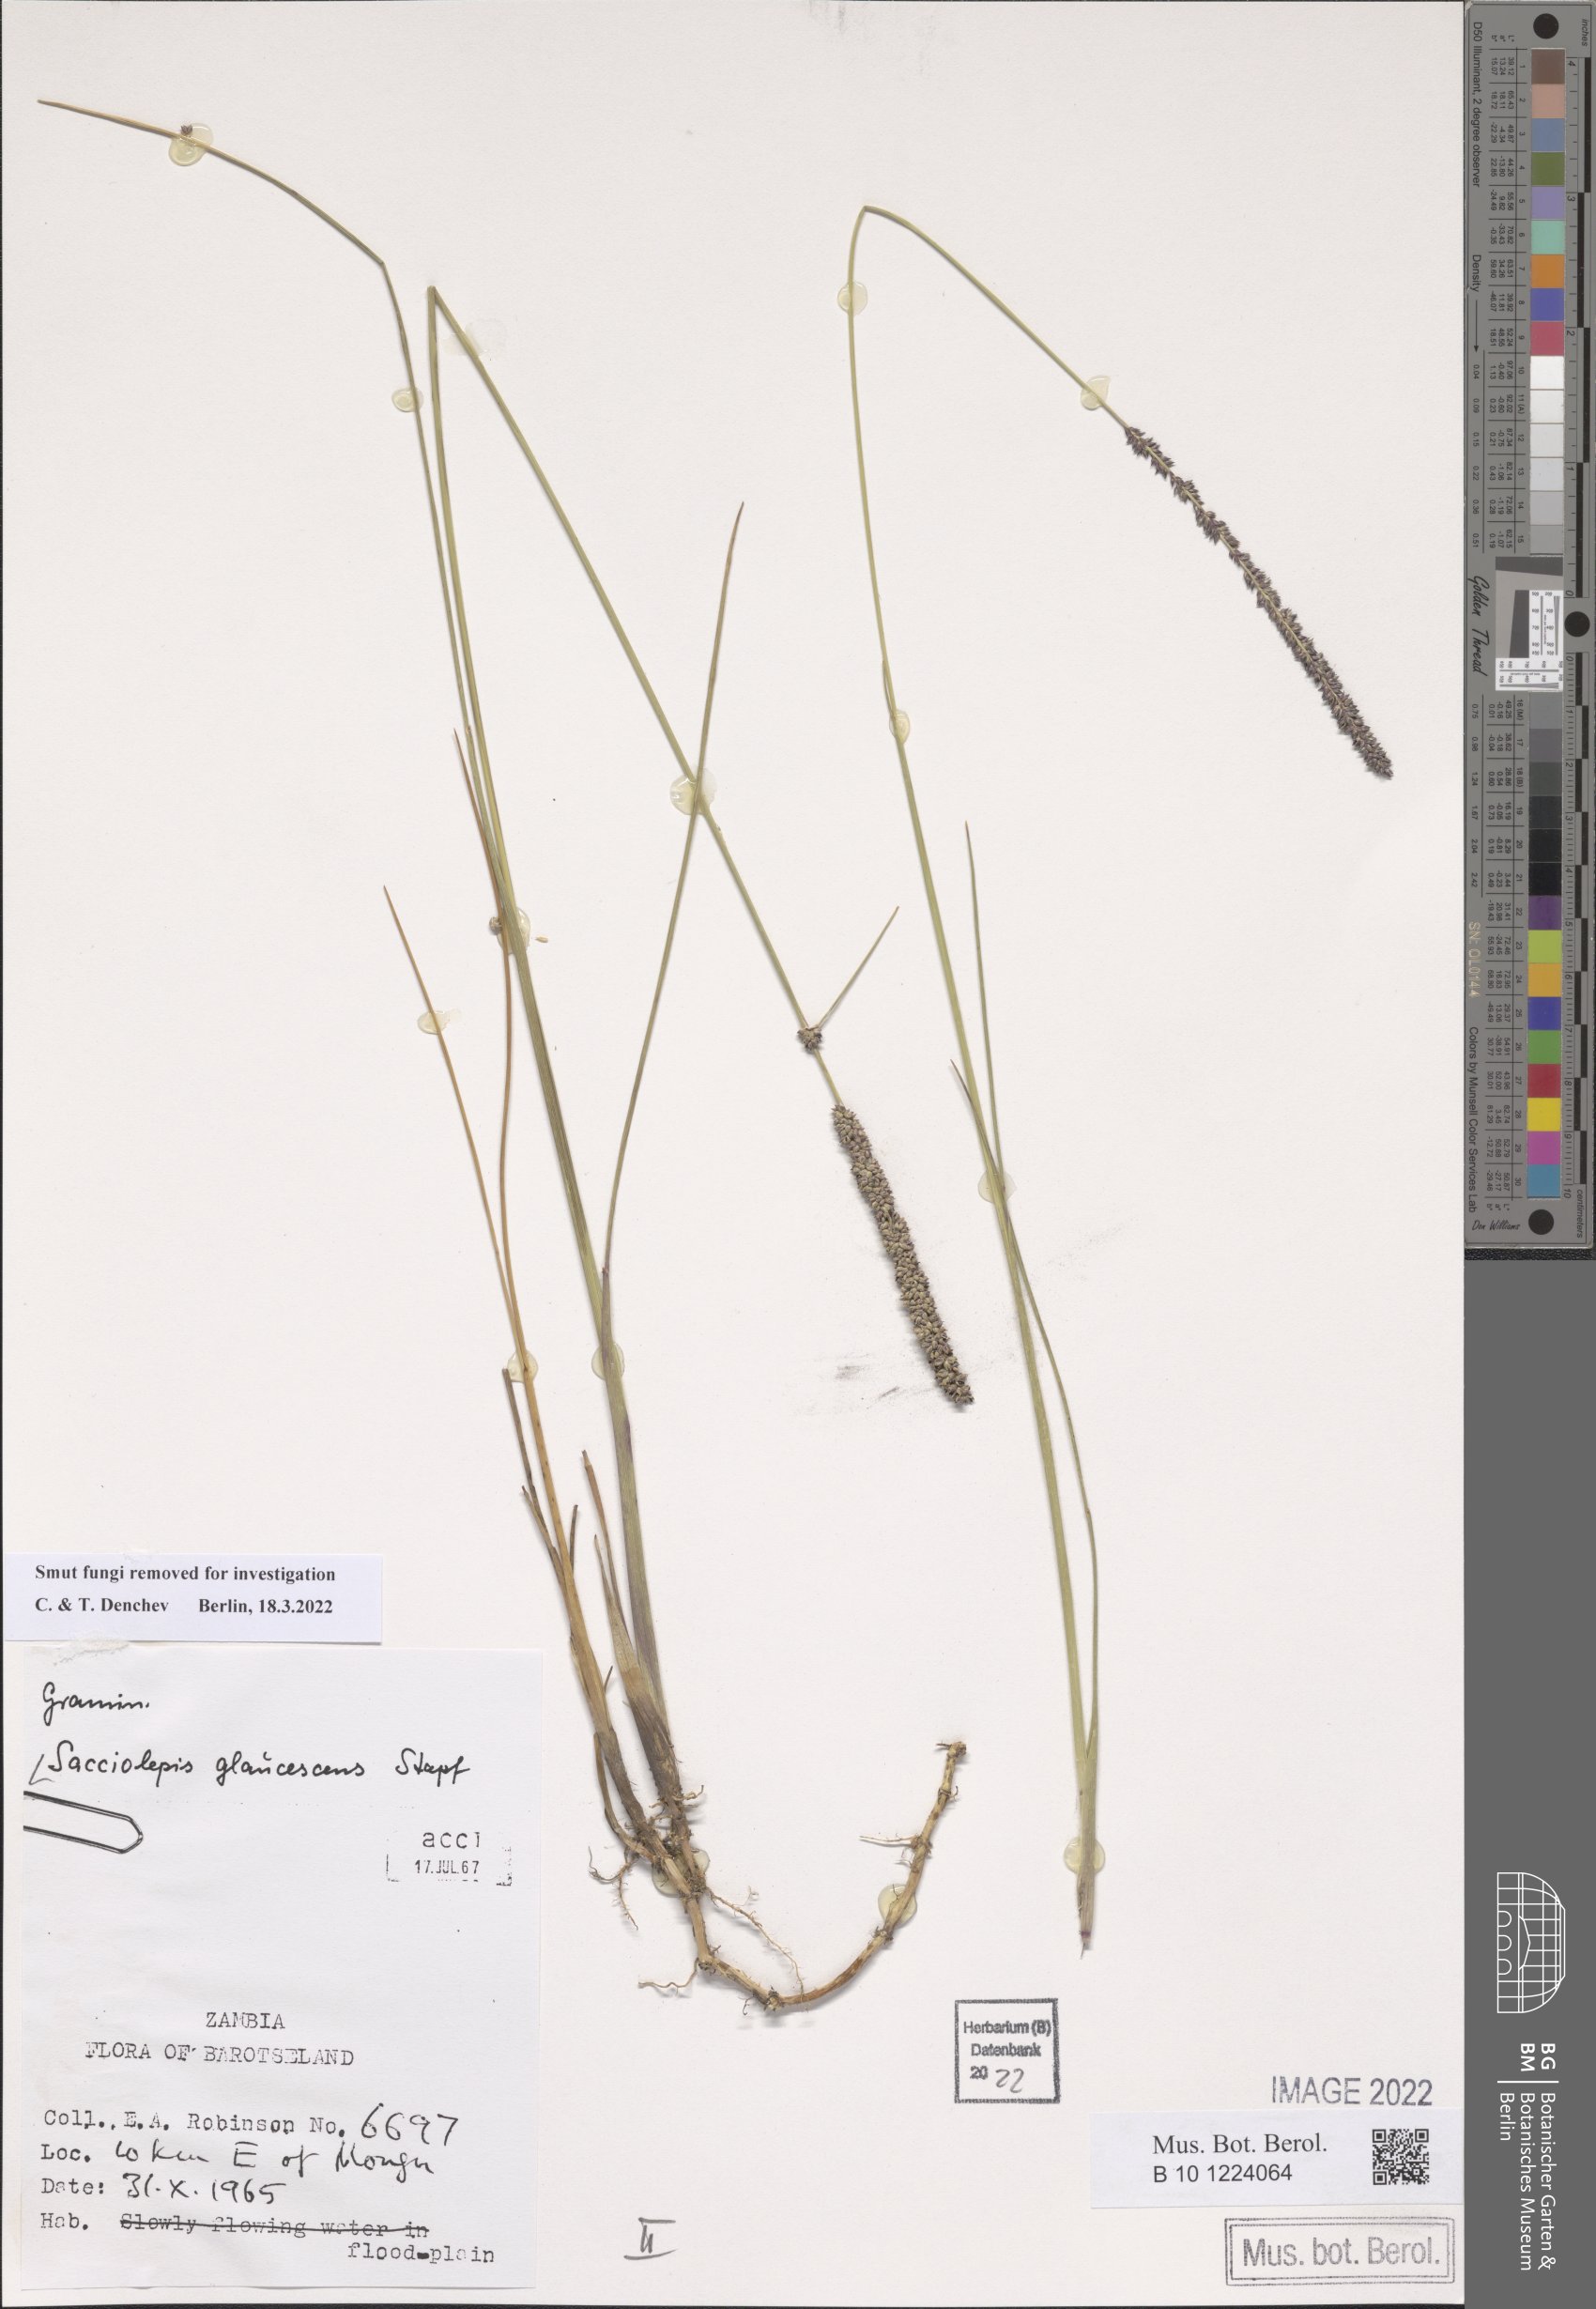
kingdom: Plantae
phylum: Tracheophyta
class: Liliopsida
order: Poales
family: Poaceae
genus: Sacciolepis
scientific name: Sacciolepis typhura
